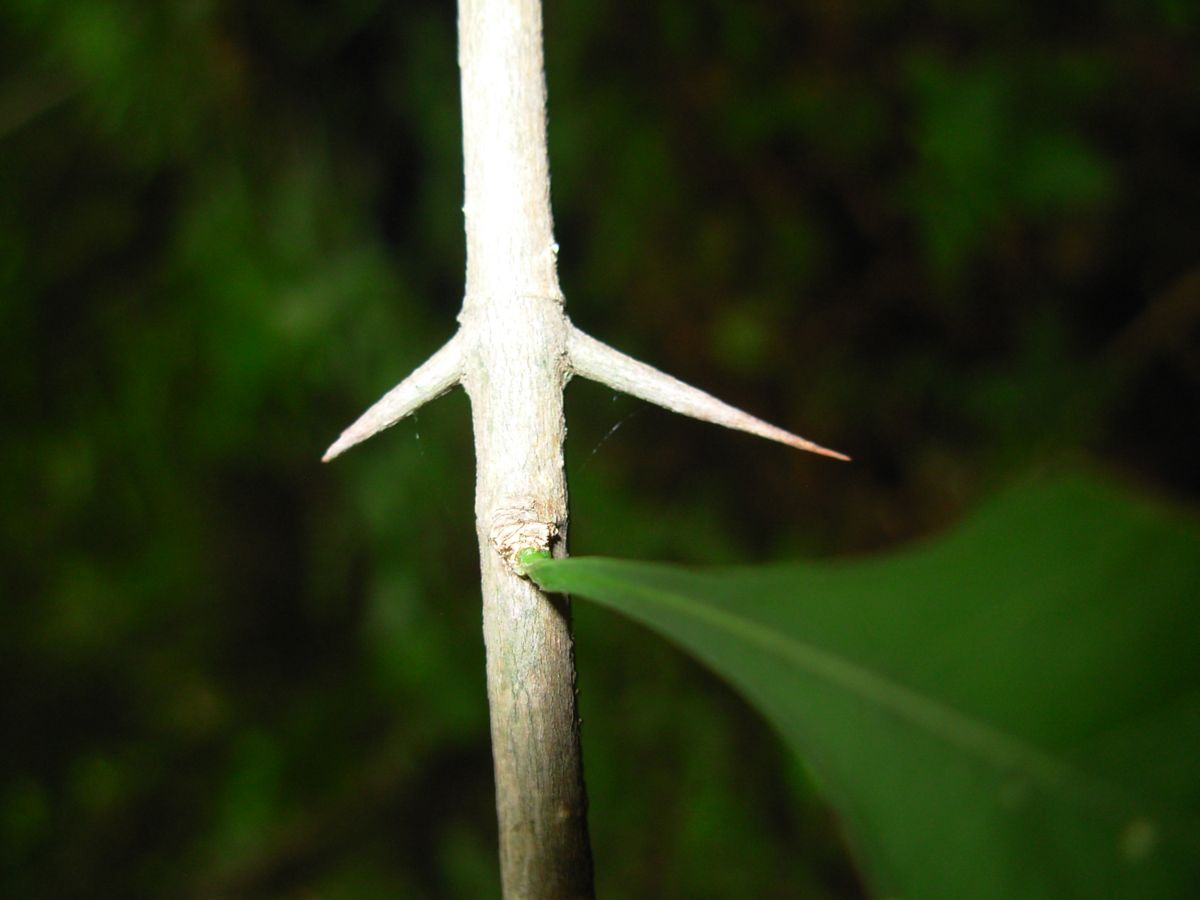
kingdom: Plantae
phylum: Tracheophyta
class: Magnoliopsida
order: Gentianales
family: Rubiaceae
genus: Randia
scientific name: Randia thurberi
